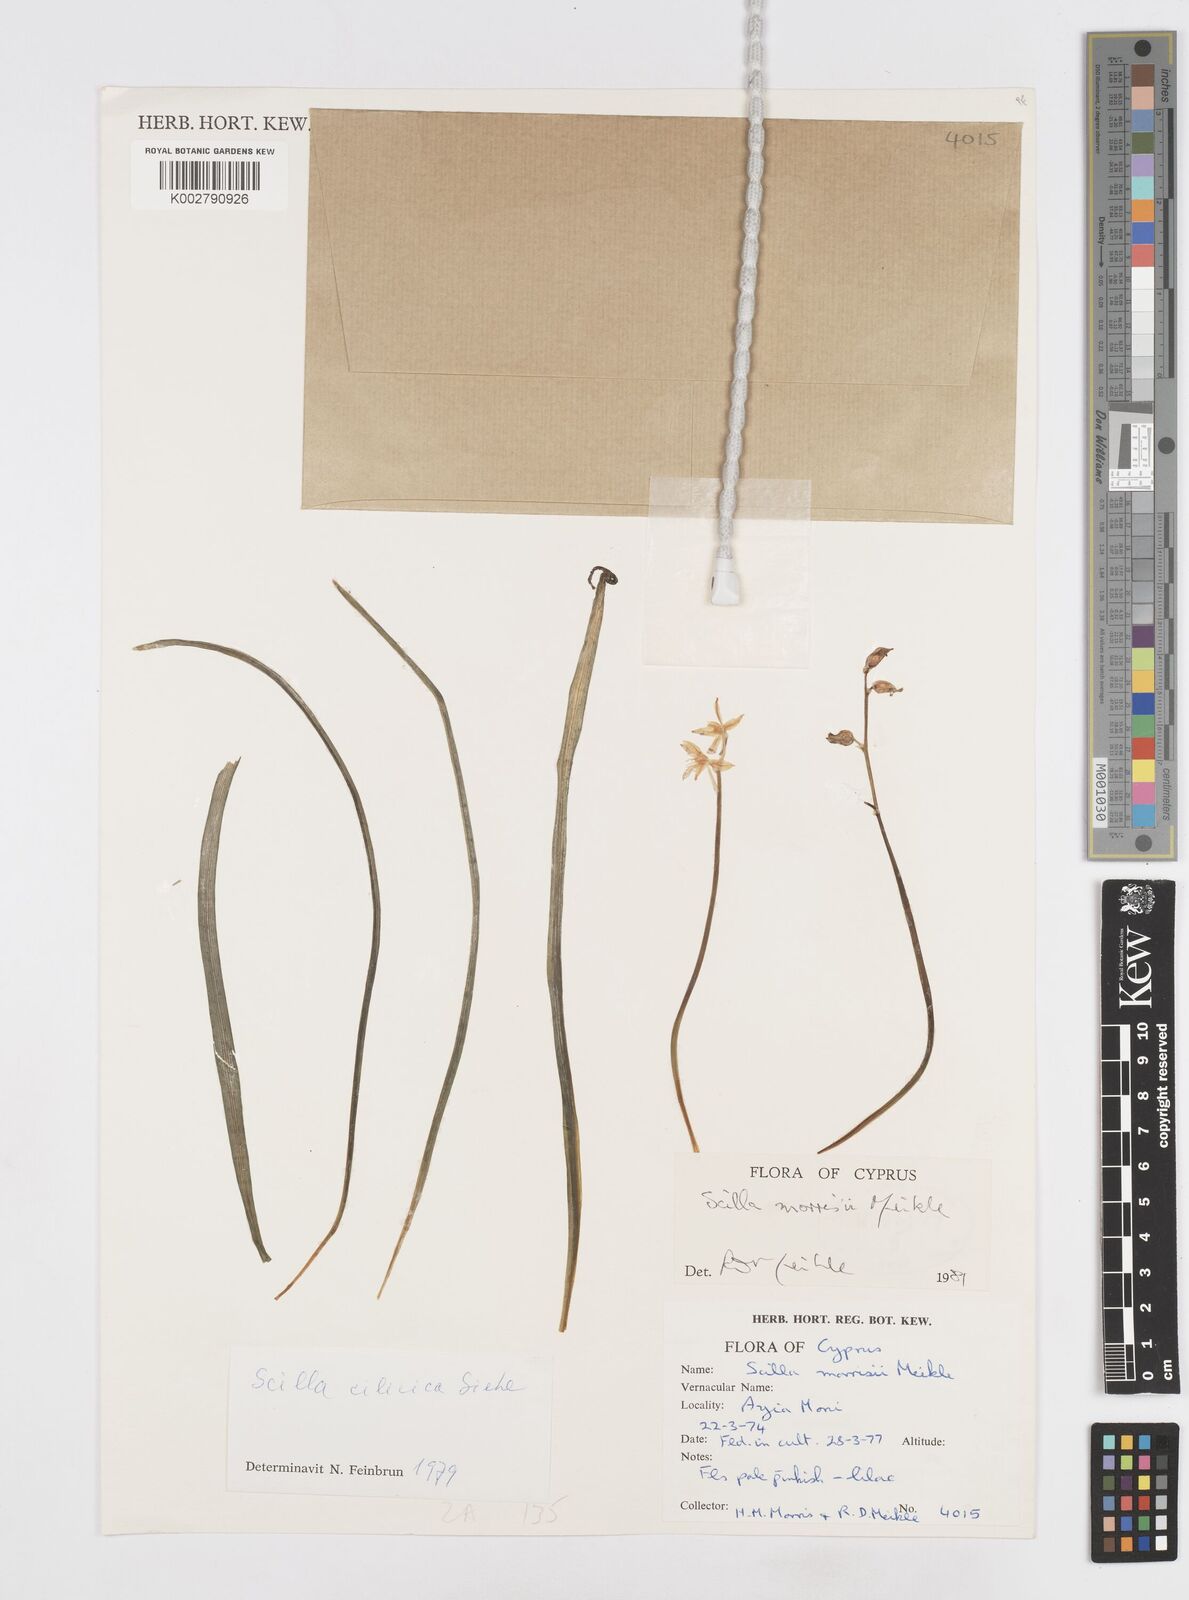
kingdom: Plantae
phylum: Tracheophyta
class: Liliopsida
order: Asparagales
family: Asparagaceae
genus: Scilla
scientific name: Scilla morrisii
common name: Morris squill
